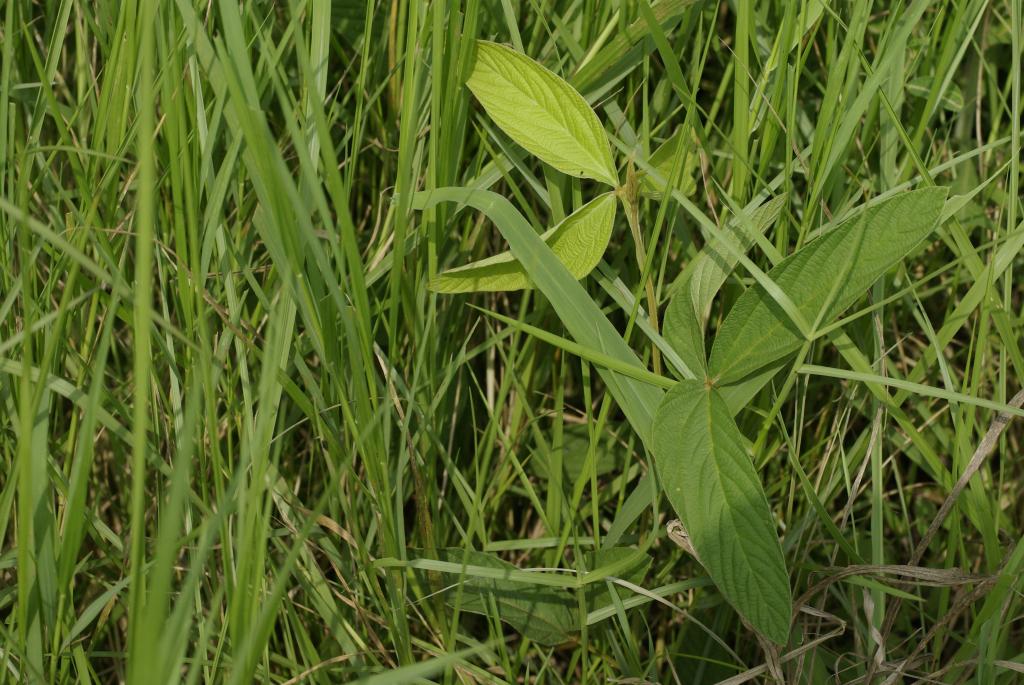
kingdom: Plantae
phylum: Tracheophyta
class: Magnoliopsida
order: Fabales
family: Fabaceae
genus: Flemingia
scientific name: Flemingia macrophylla
